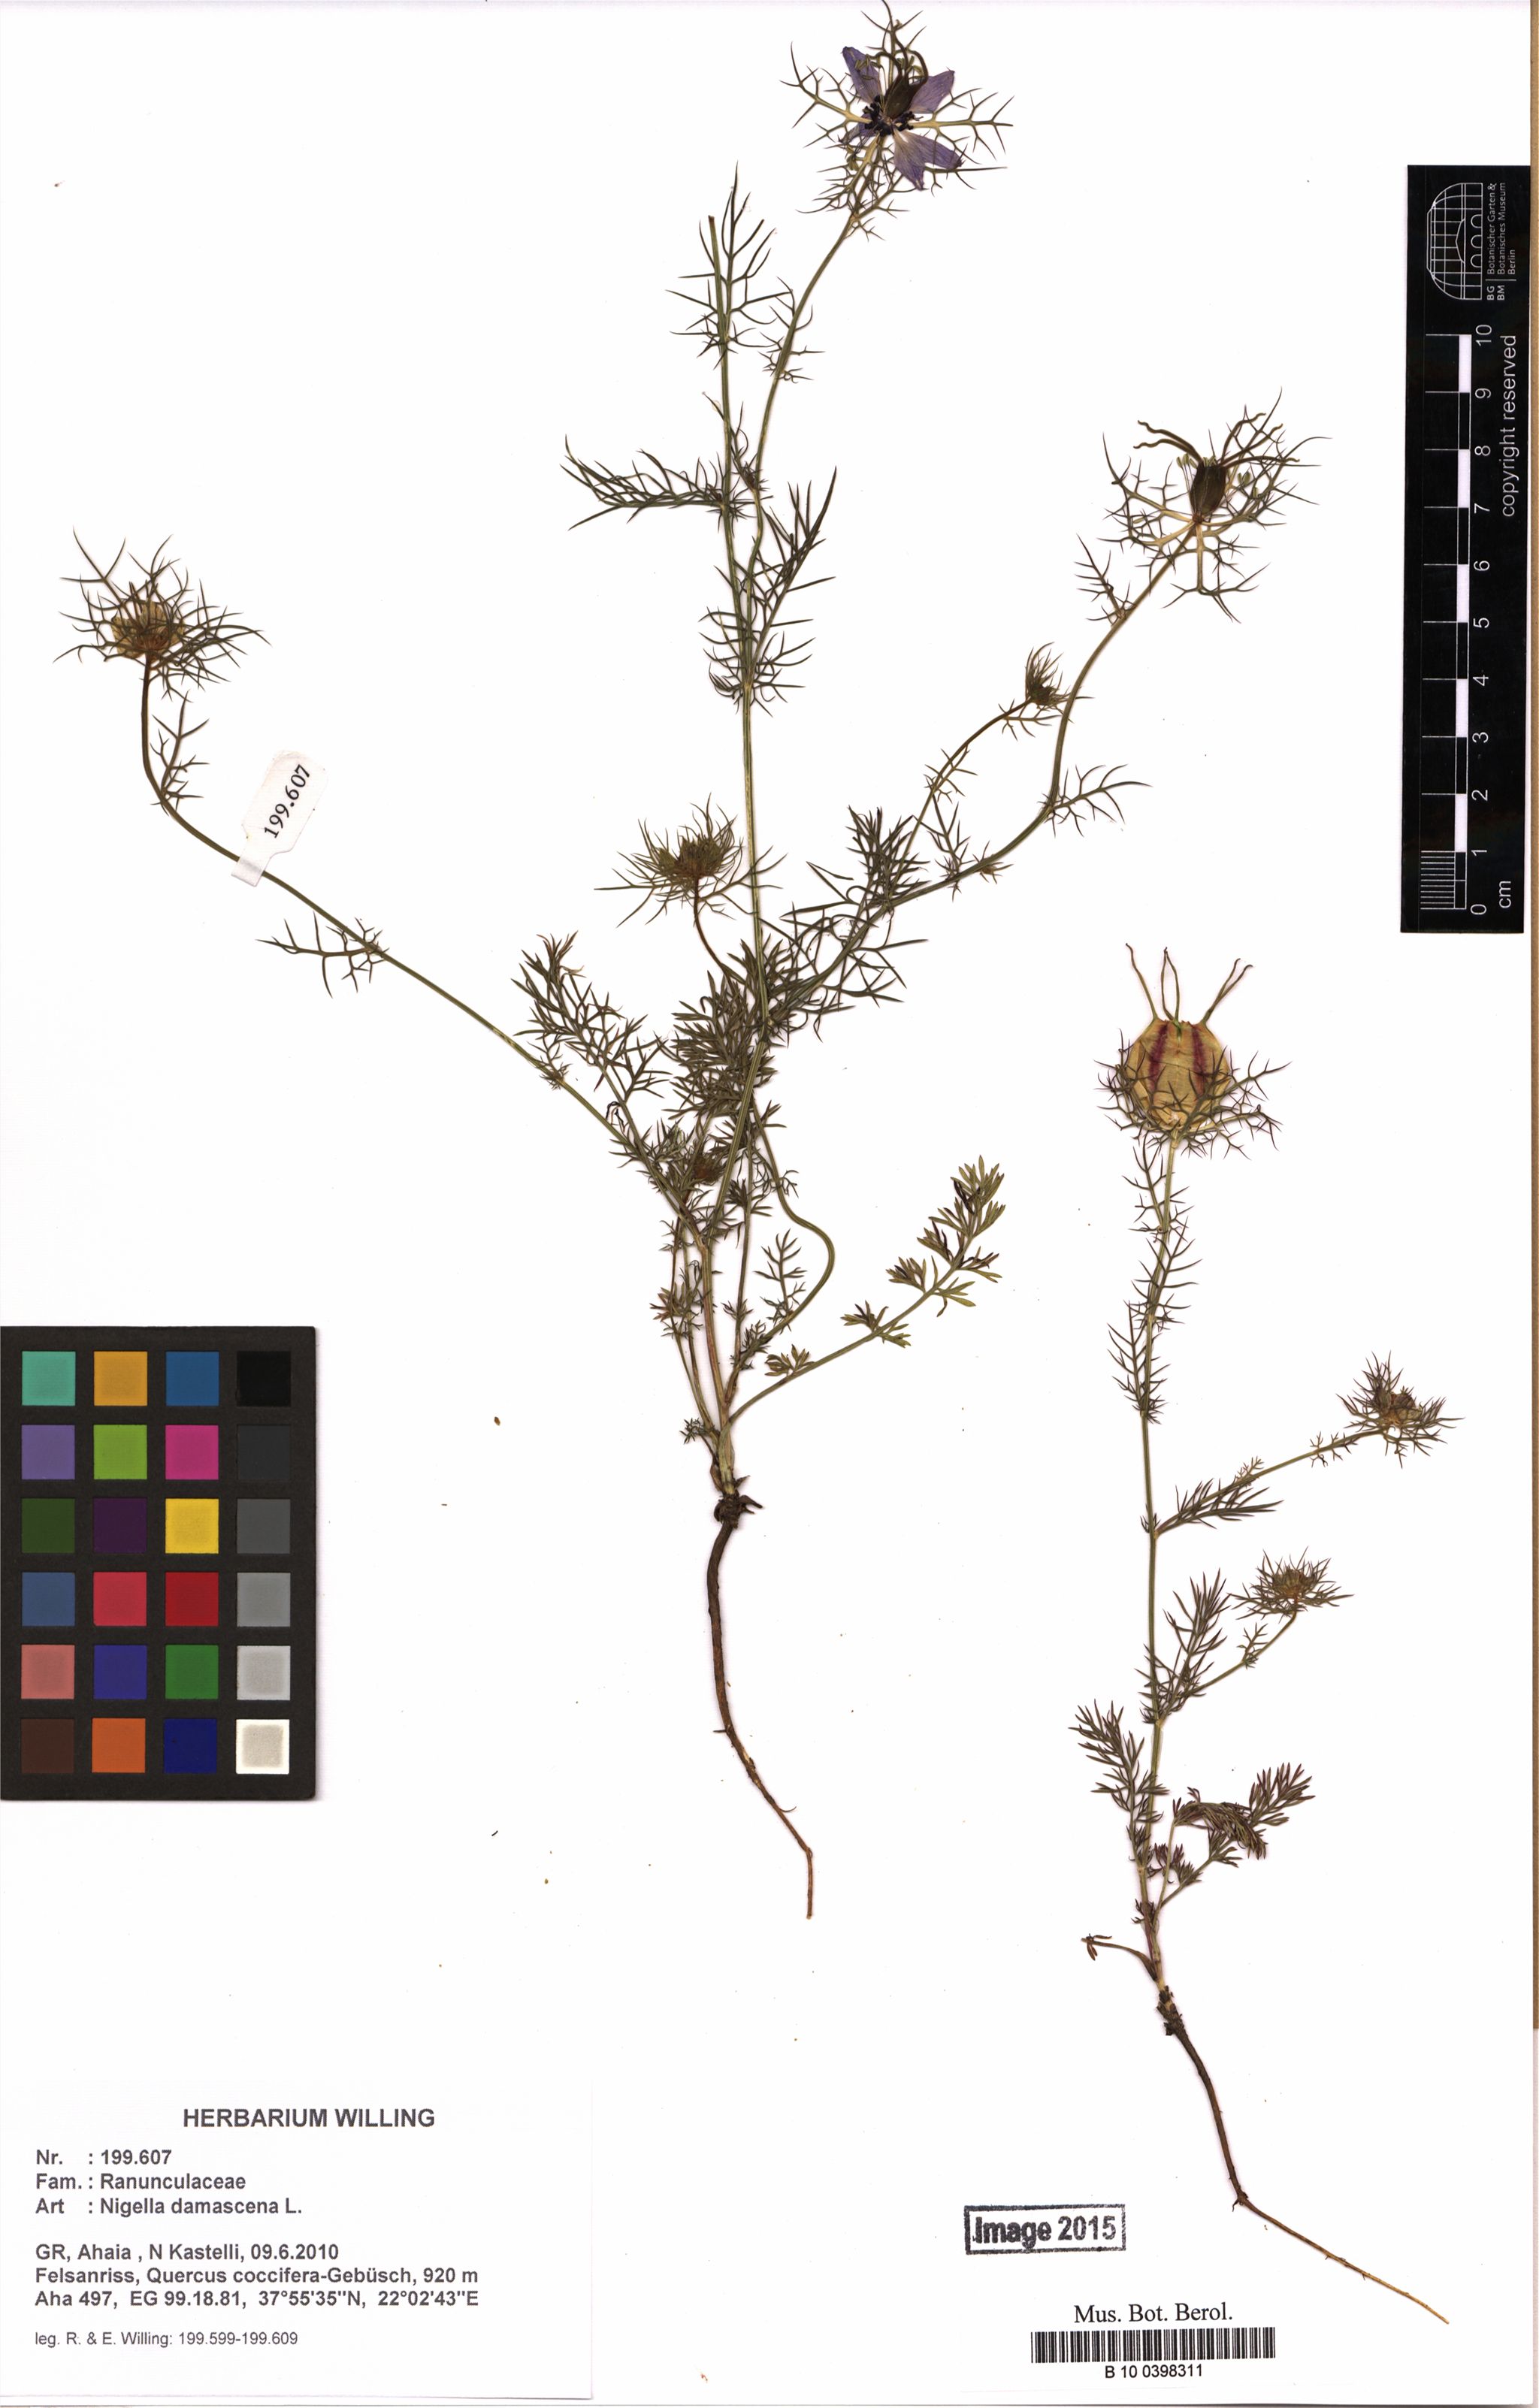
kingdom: Plantae
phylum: Tracheophyta
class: Magnoliopsida
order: Ranunculales
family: Ranunculaceae
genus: Nigella
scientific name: Nigella damascena
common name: Love-in-a-mist
